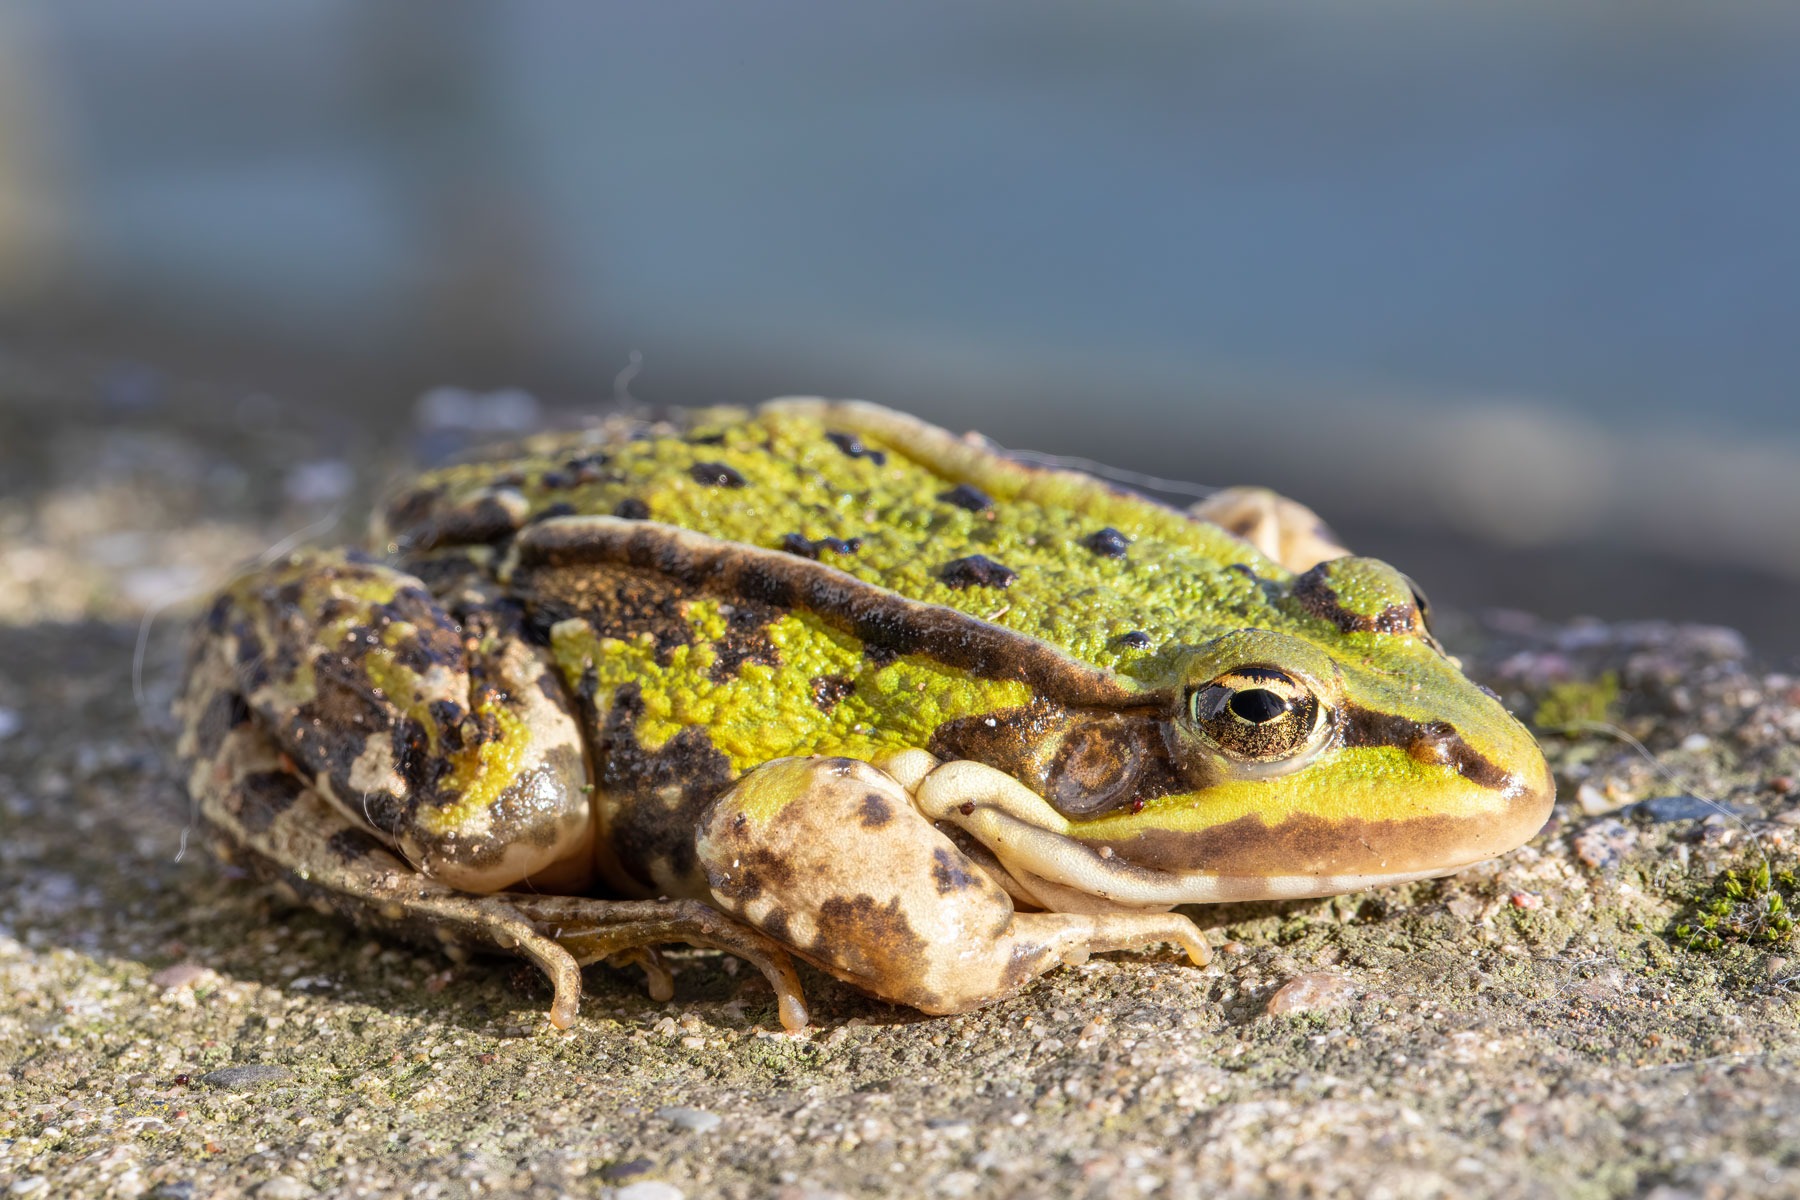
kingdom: Animalia
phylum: Chordata
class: Amphibia
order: Anura
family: Ranidae
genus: Pelophylax
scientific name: Pelophylax lessonae
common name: Grøn frø
